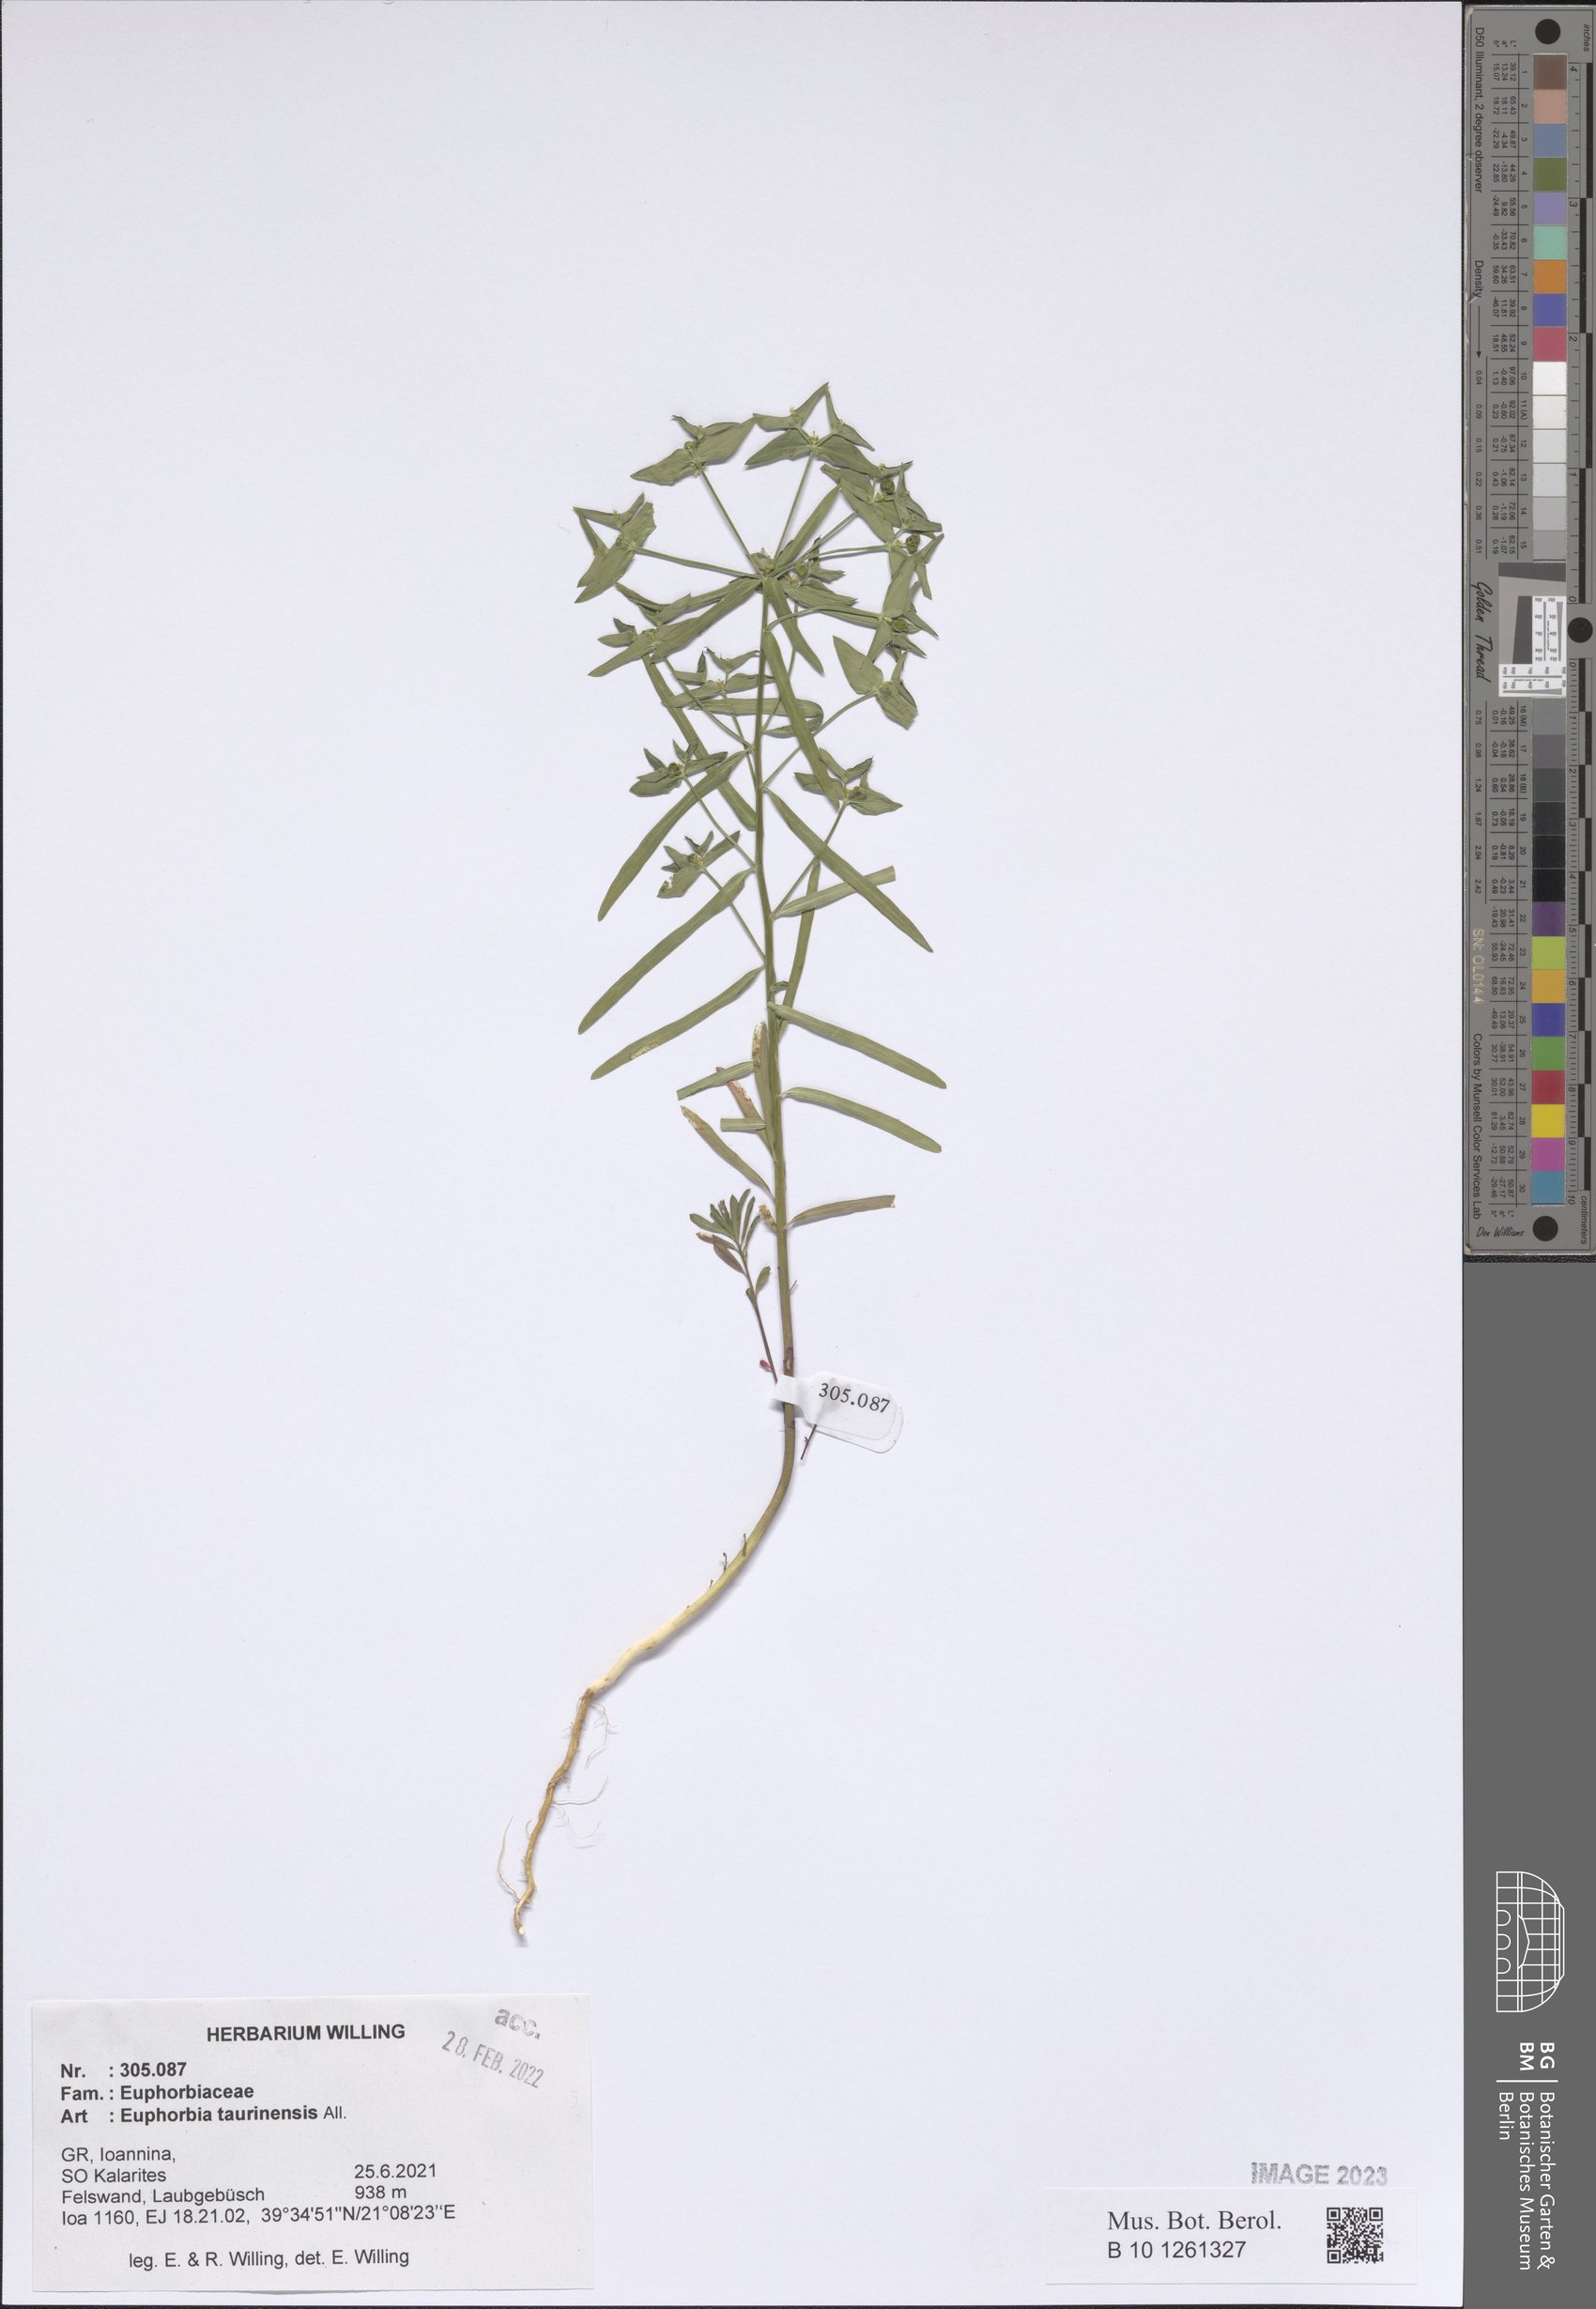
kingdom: Plantae
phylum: Tracheophyta
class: Magnoliopsida
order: Malpighiales
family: Euphorbiaceae
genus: Euphorbia
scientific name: Euphorbia taurinensis
